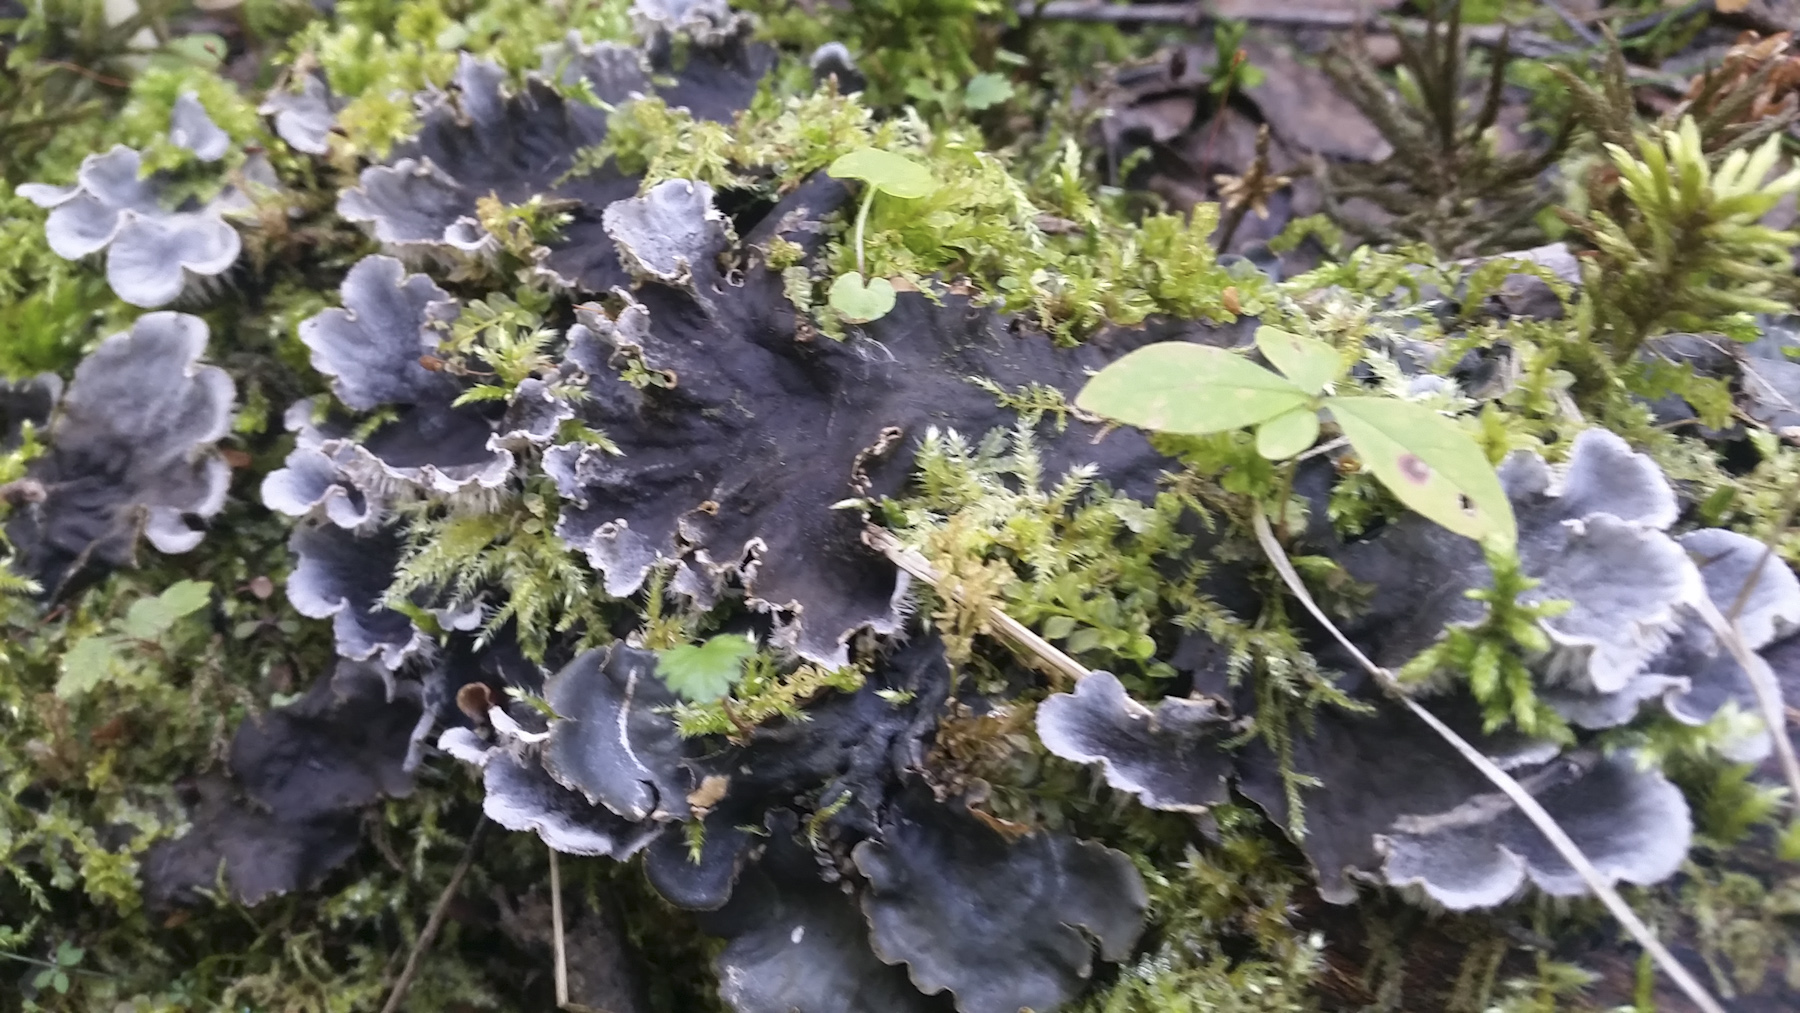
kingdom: Fungi
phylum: Ascomycota
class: Lecanoromycetes
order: Peltigerales
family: Peltigeraceae
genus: Peltigera
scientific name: Peltigera
